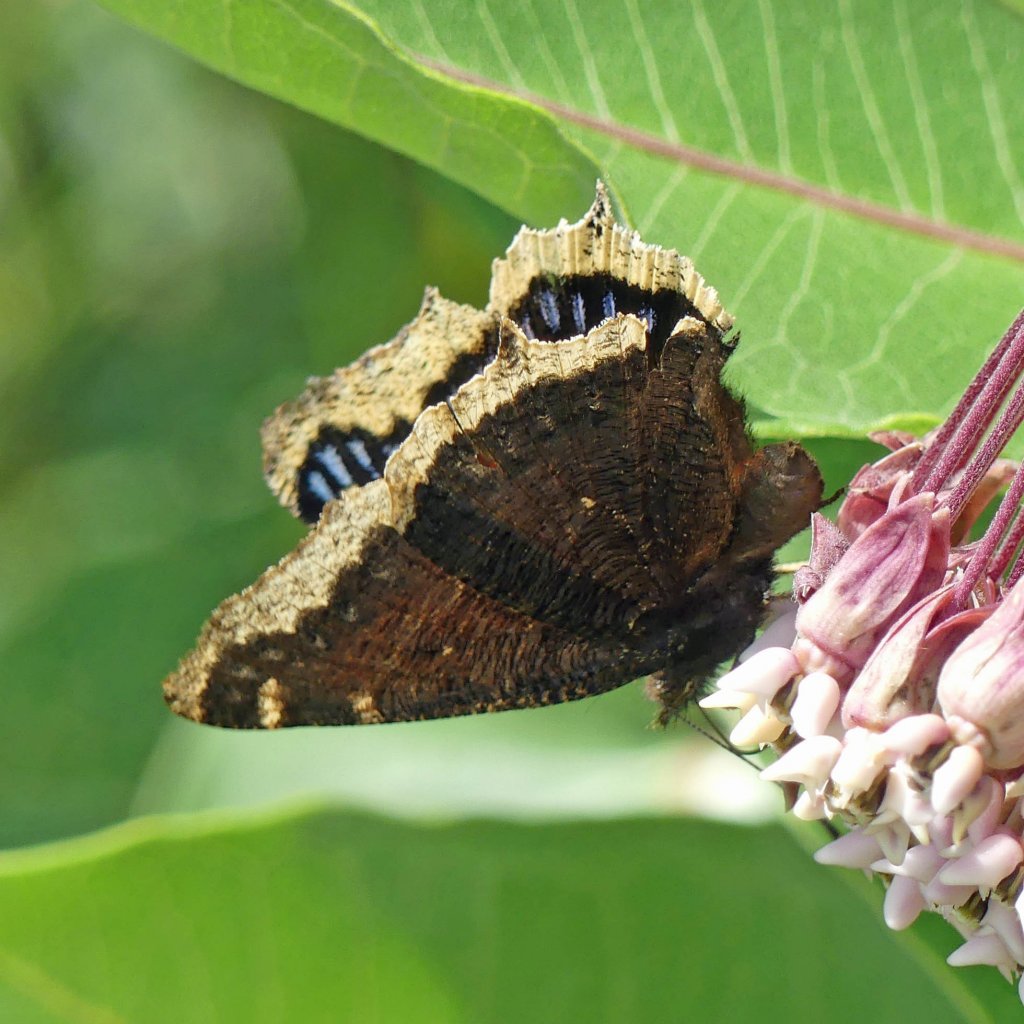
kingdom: Animalia
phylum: Arthropoda
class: Insecta
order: Lepidoptera
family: Nymphalidae
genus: Nymphalis
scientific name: Nymphalis antiopa
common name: Mourning Cloak
